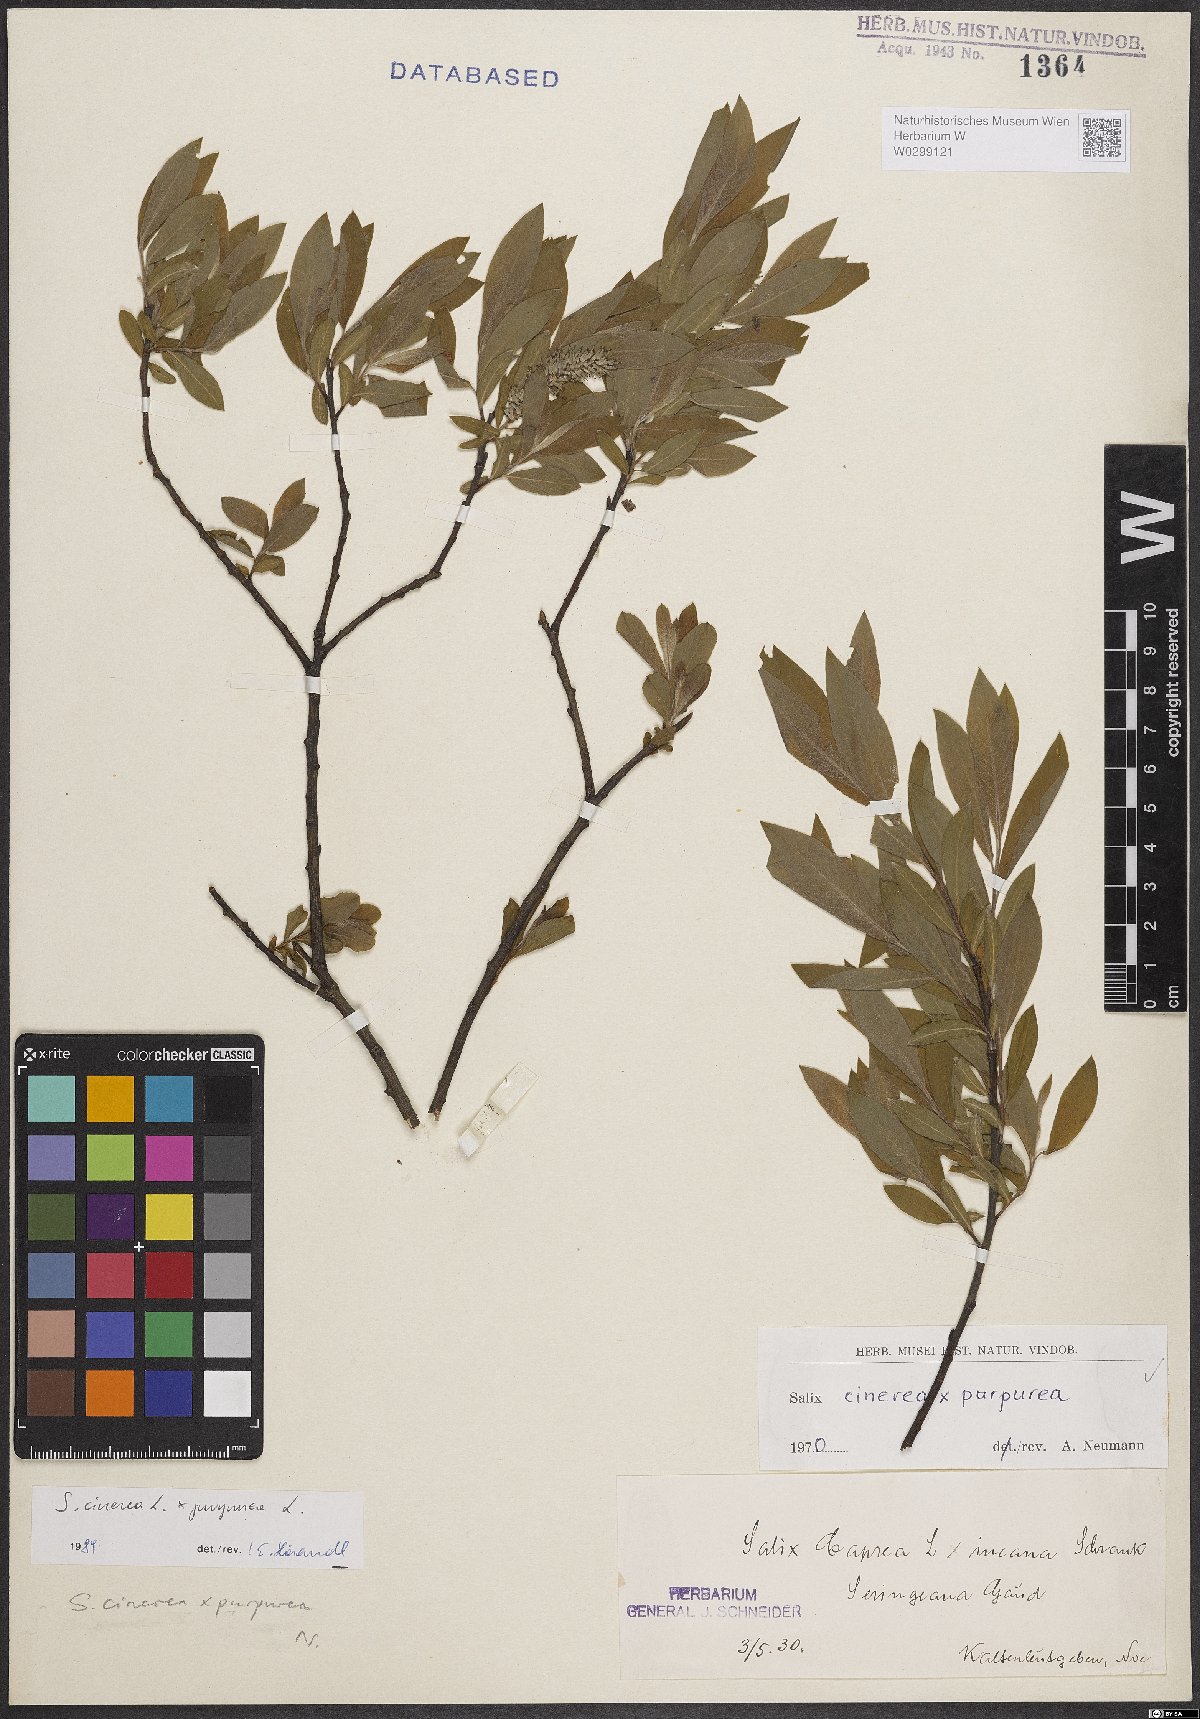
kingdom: Plantae
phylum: Tracheophyta
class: Magnoliopsida
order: Malpighiales
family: Salicaceae
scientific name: Salicaceae
